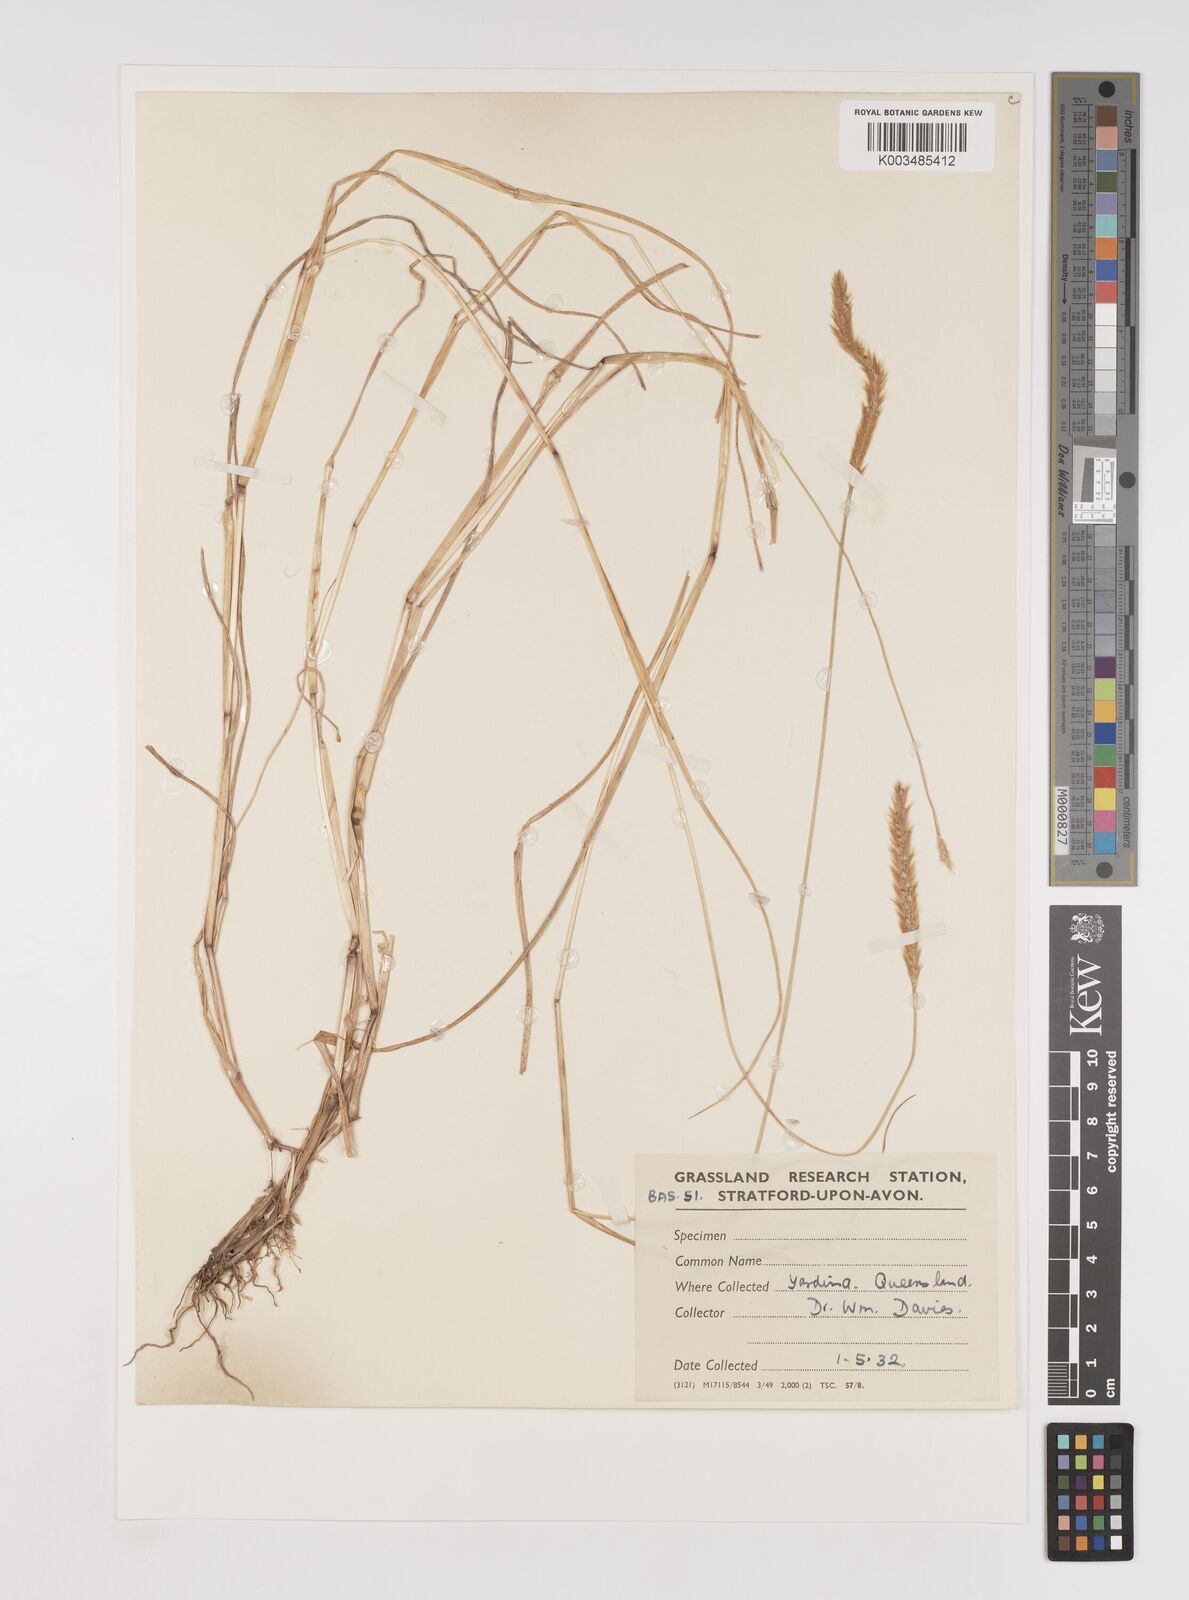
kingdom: Plantae
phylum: Tracheophyta
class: Liliopsida
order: Poales
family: Poaceae
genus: Setaria
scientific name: Setaria pumila
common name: Yellow bristle-grass
